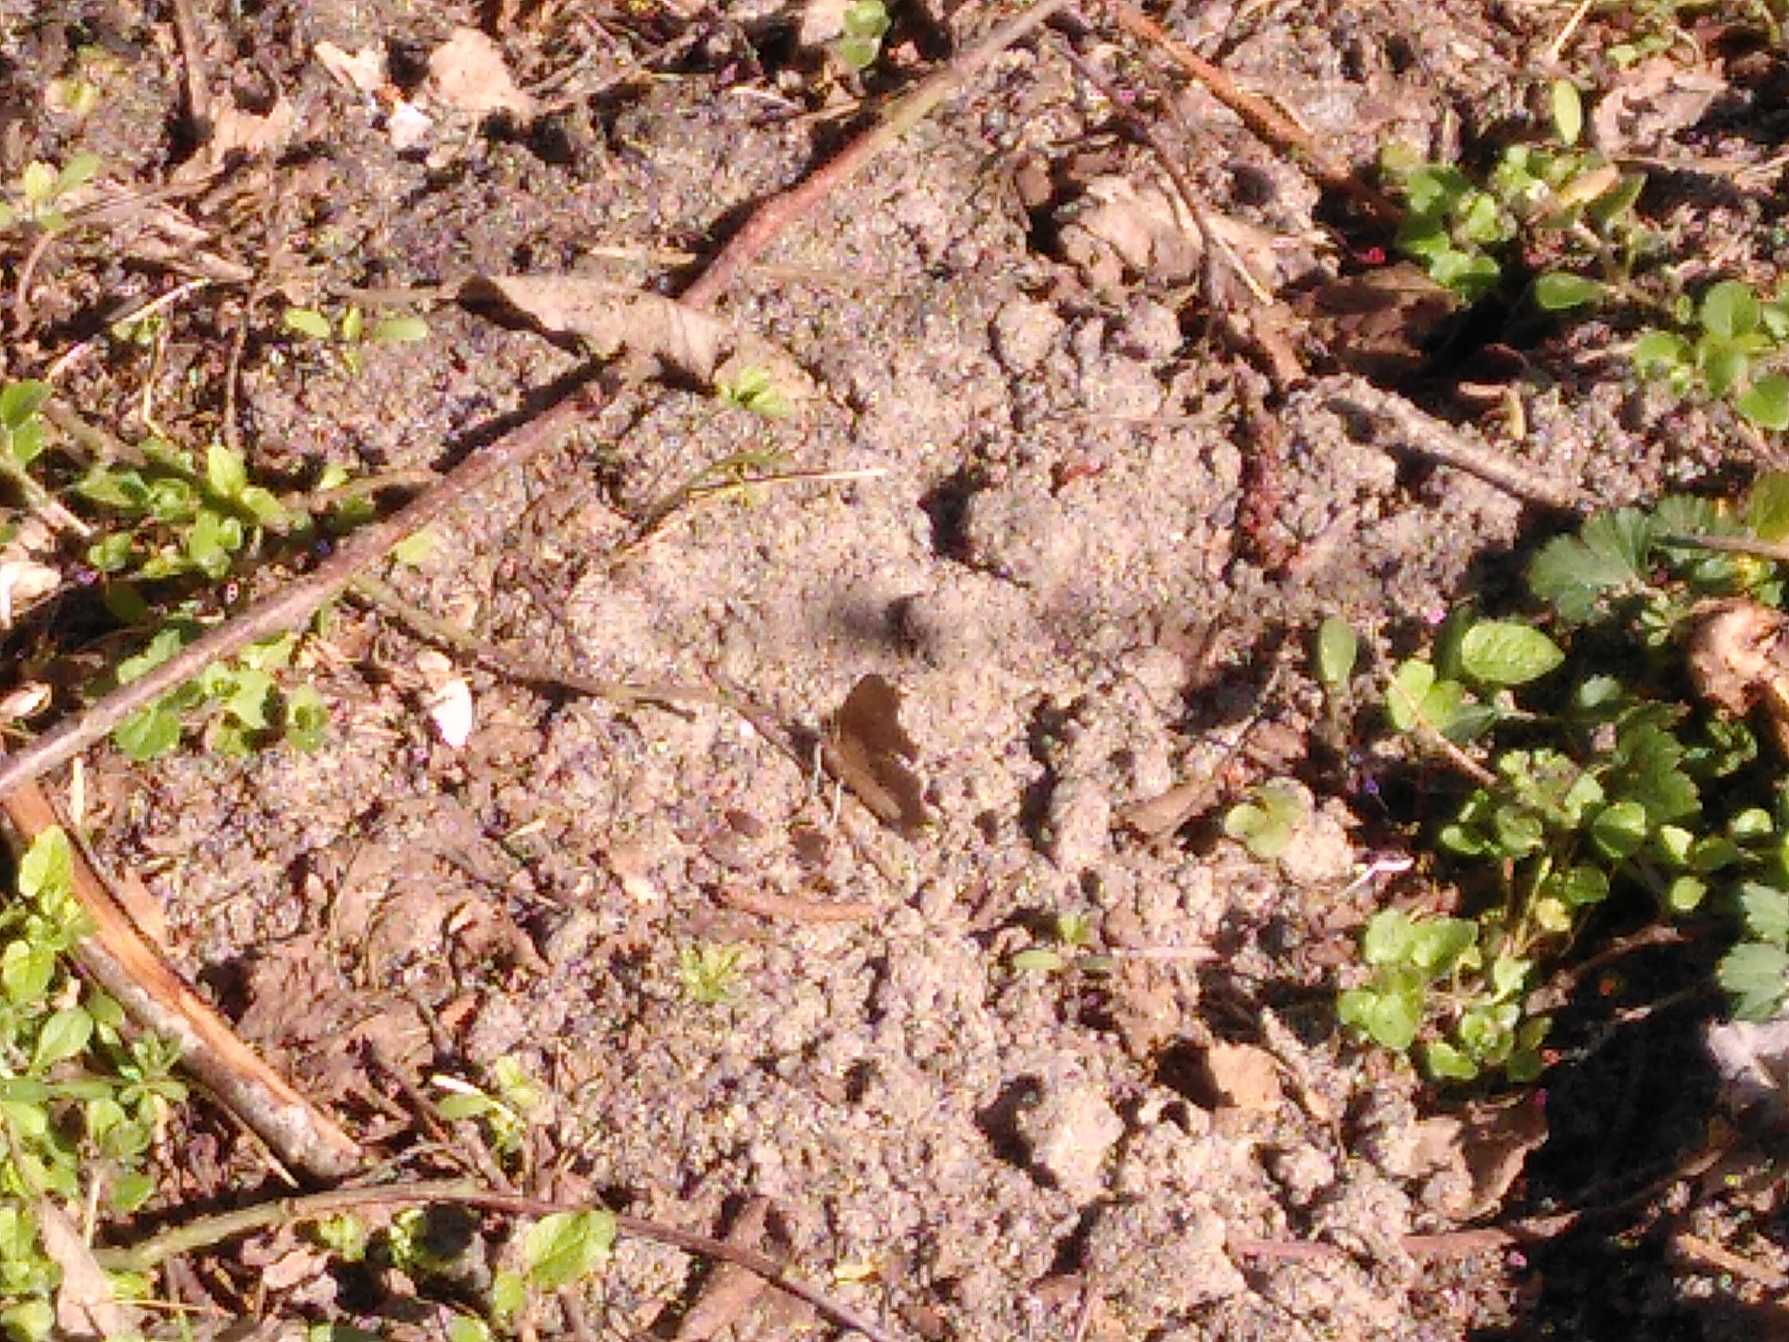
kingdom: Animalia
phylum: Arthropoda
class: Insecta
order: Lepidoptera
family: Nymphalidae
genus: Polygonia
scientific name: Polygonia c-album
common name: Det hvide C
